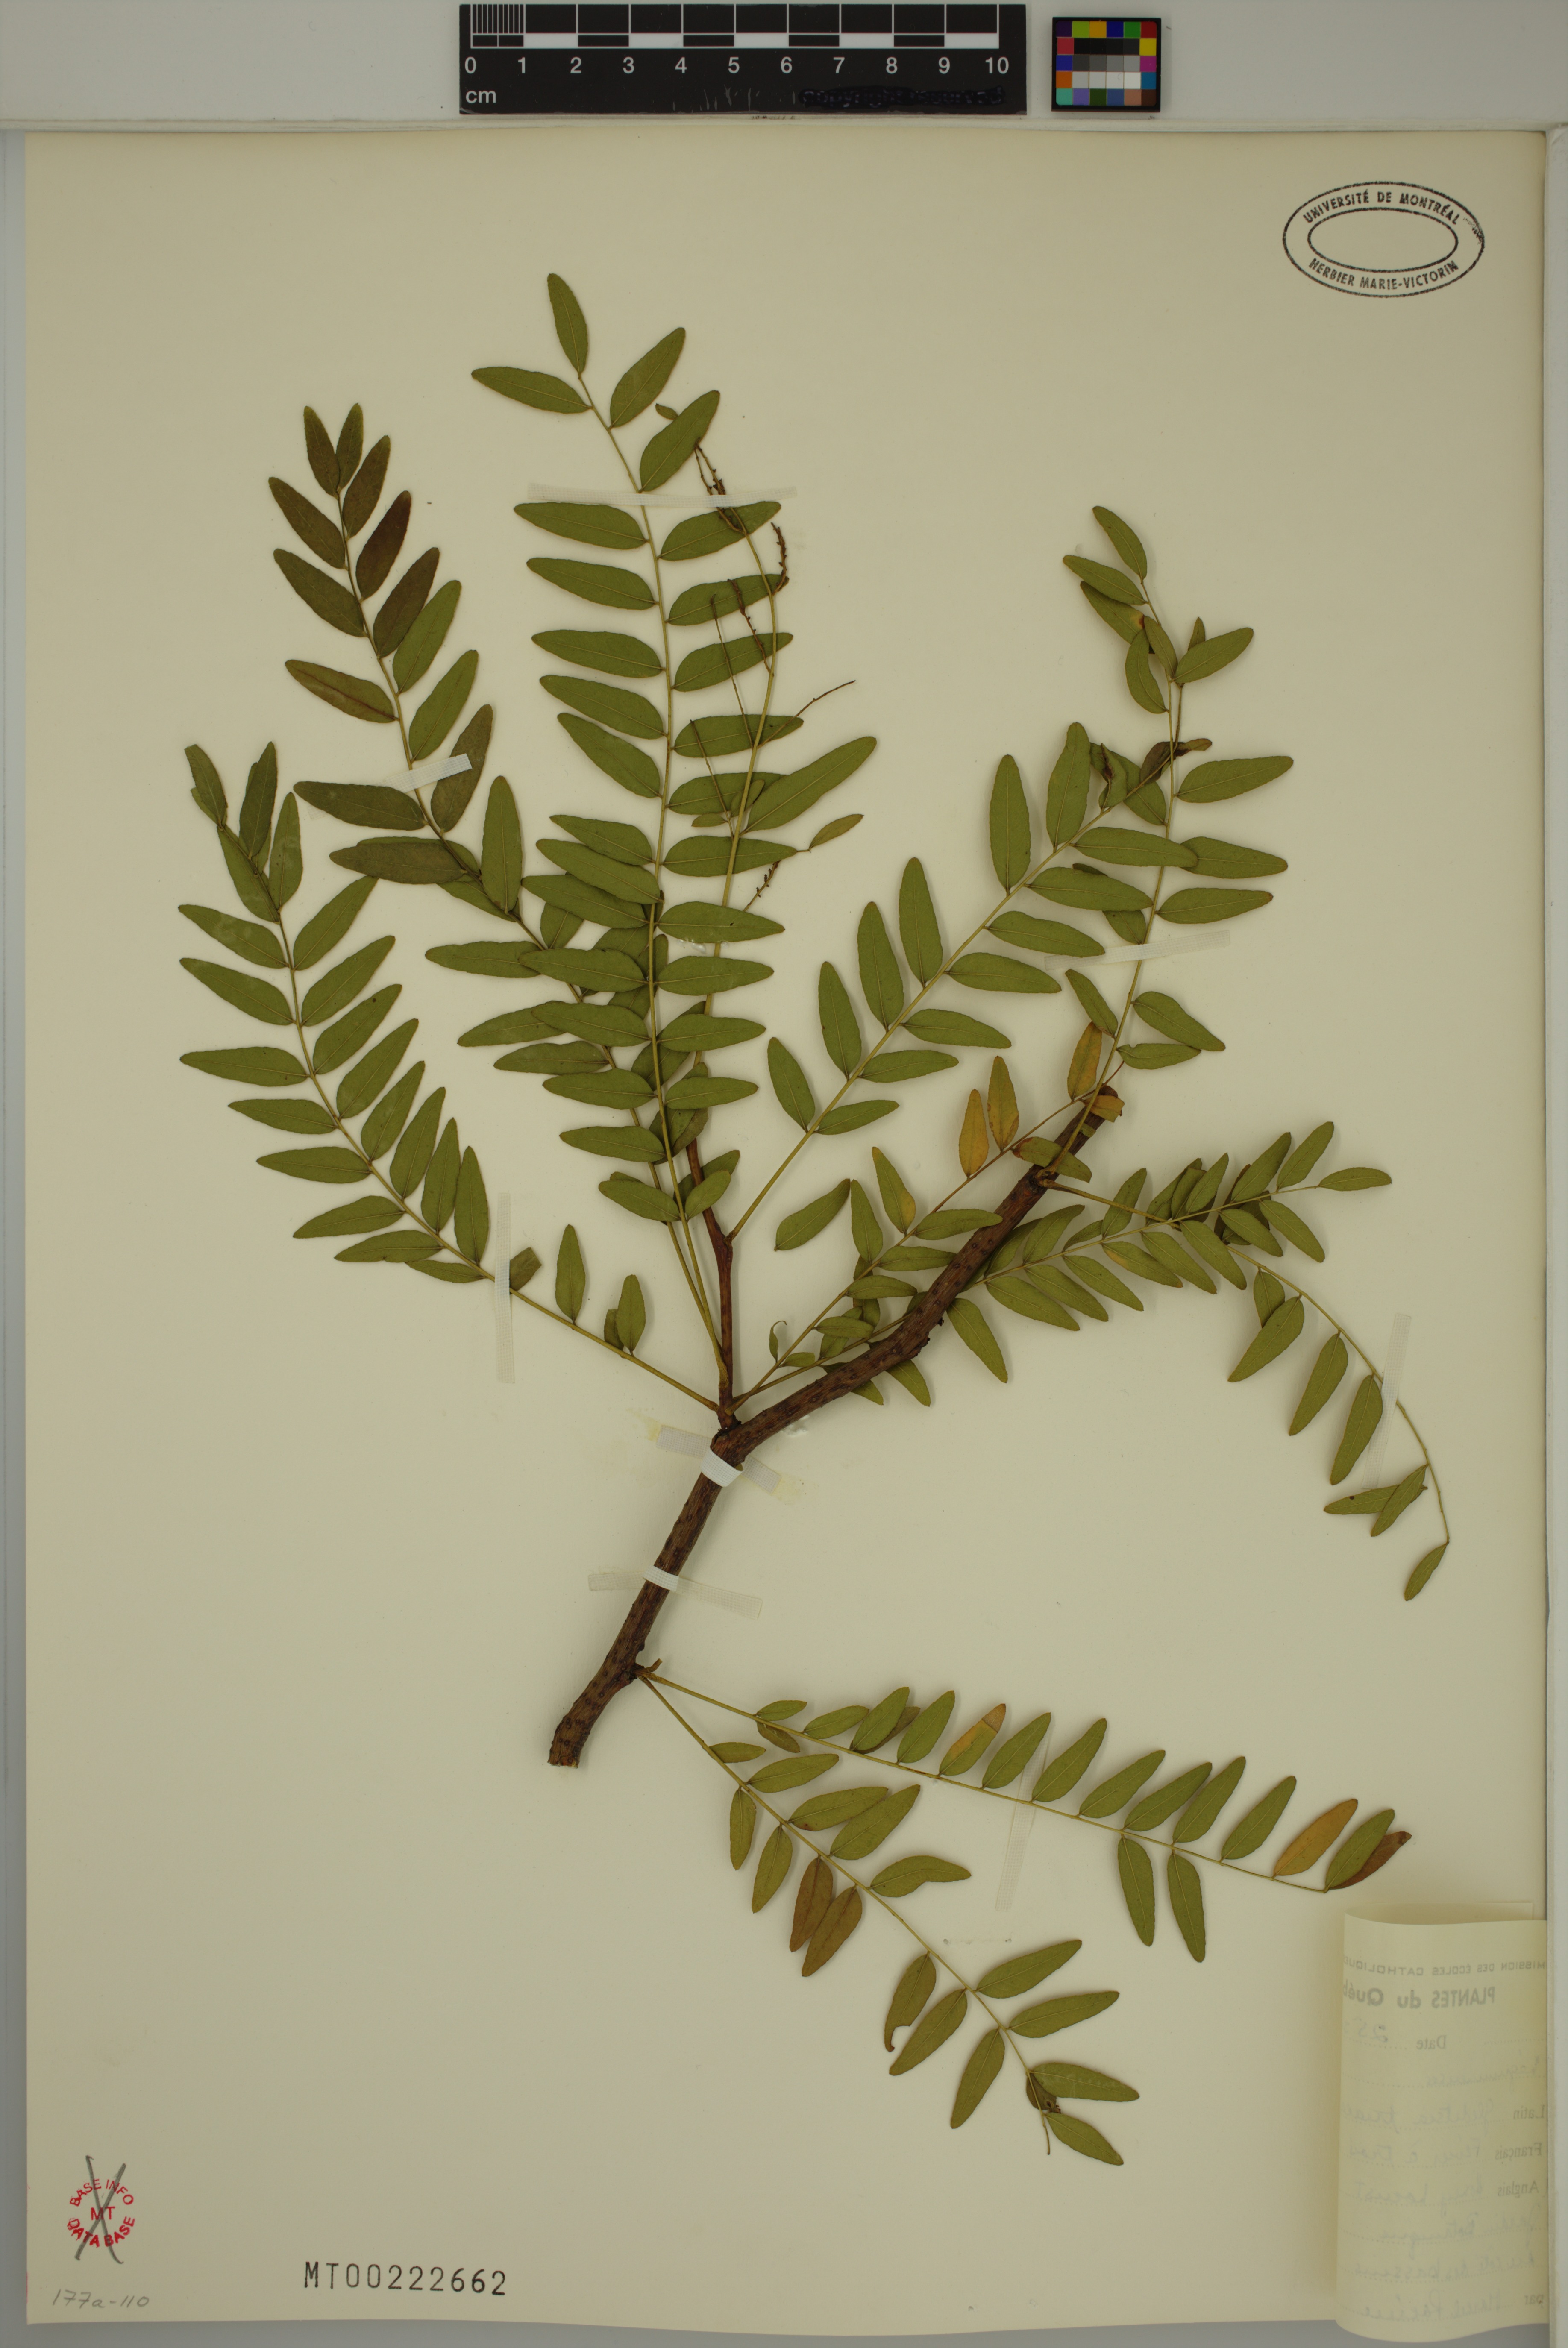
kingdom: Plantae
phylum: Tracheophyta
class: Magnoliopsida
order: Fabales
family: Fabaceae
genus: Gleditsia
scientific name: Gleditsia triacanthos
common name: Common honeylocust
